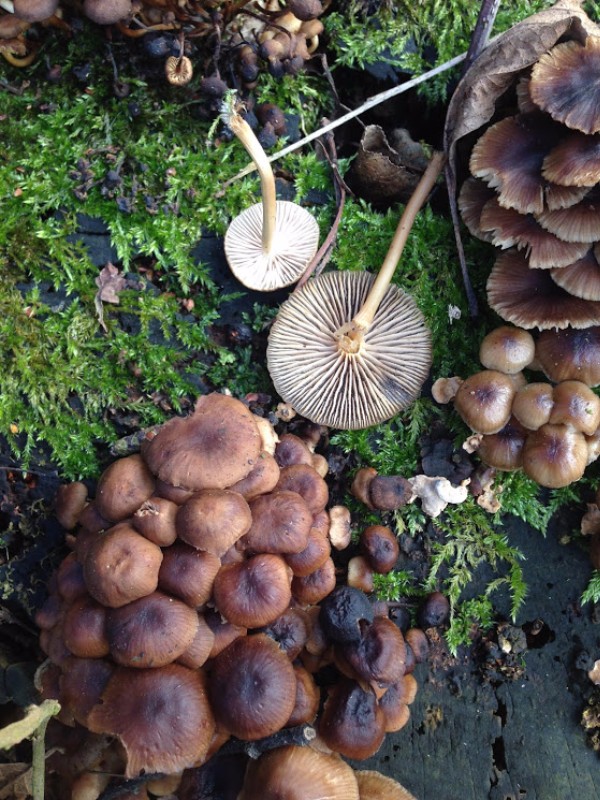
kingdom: Fungi
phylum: Basidiomycota
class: Agaricomycetes
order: Agaricales
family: Mycenaceae
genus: Mycena
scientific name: Mycena tintinnabulum
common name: vinter-huesvamp
